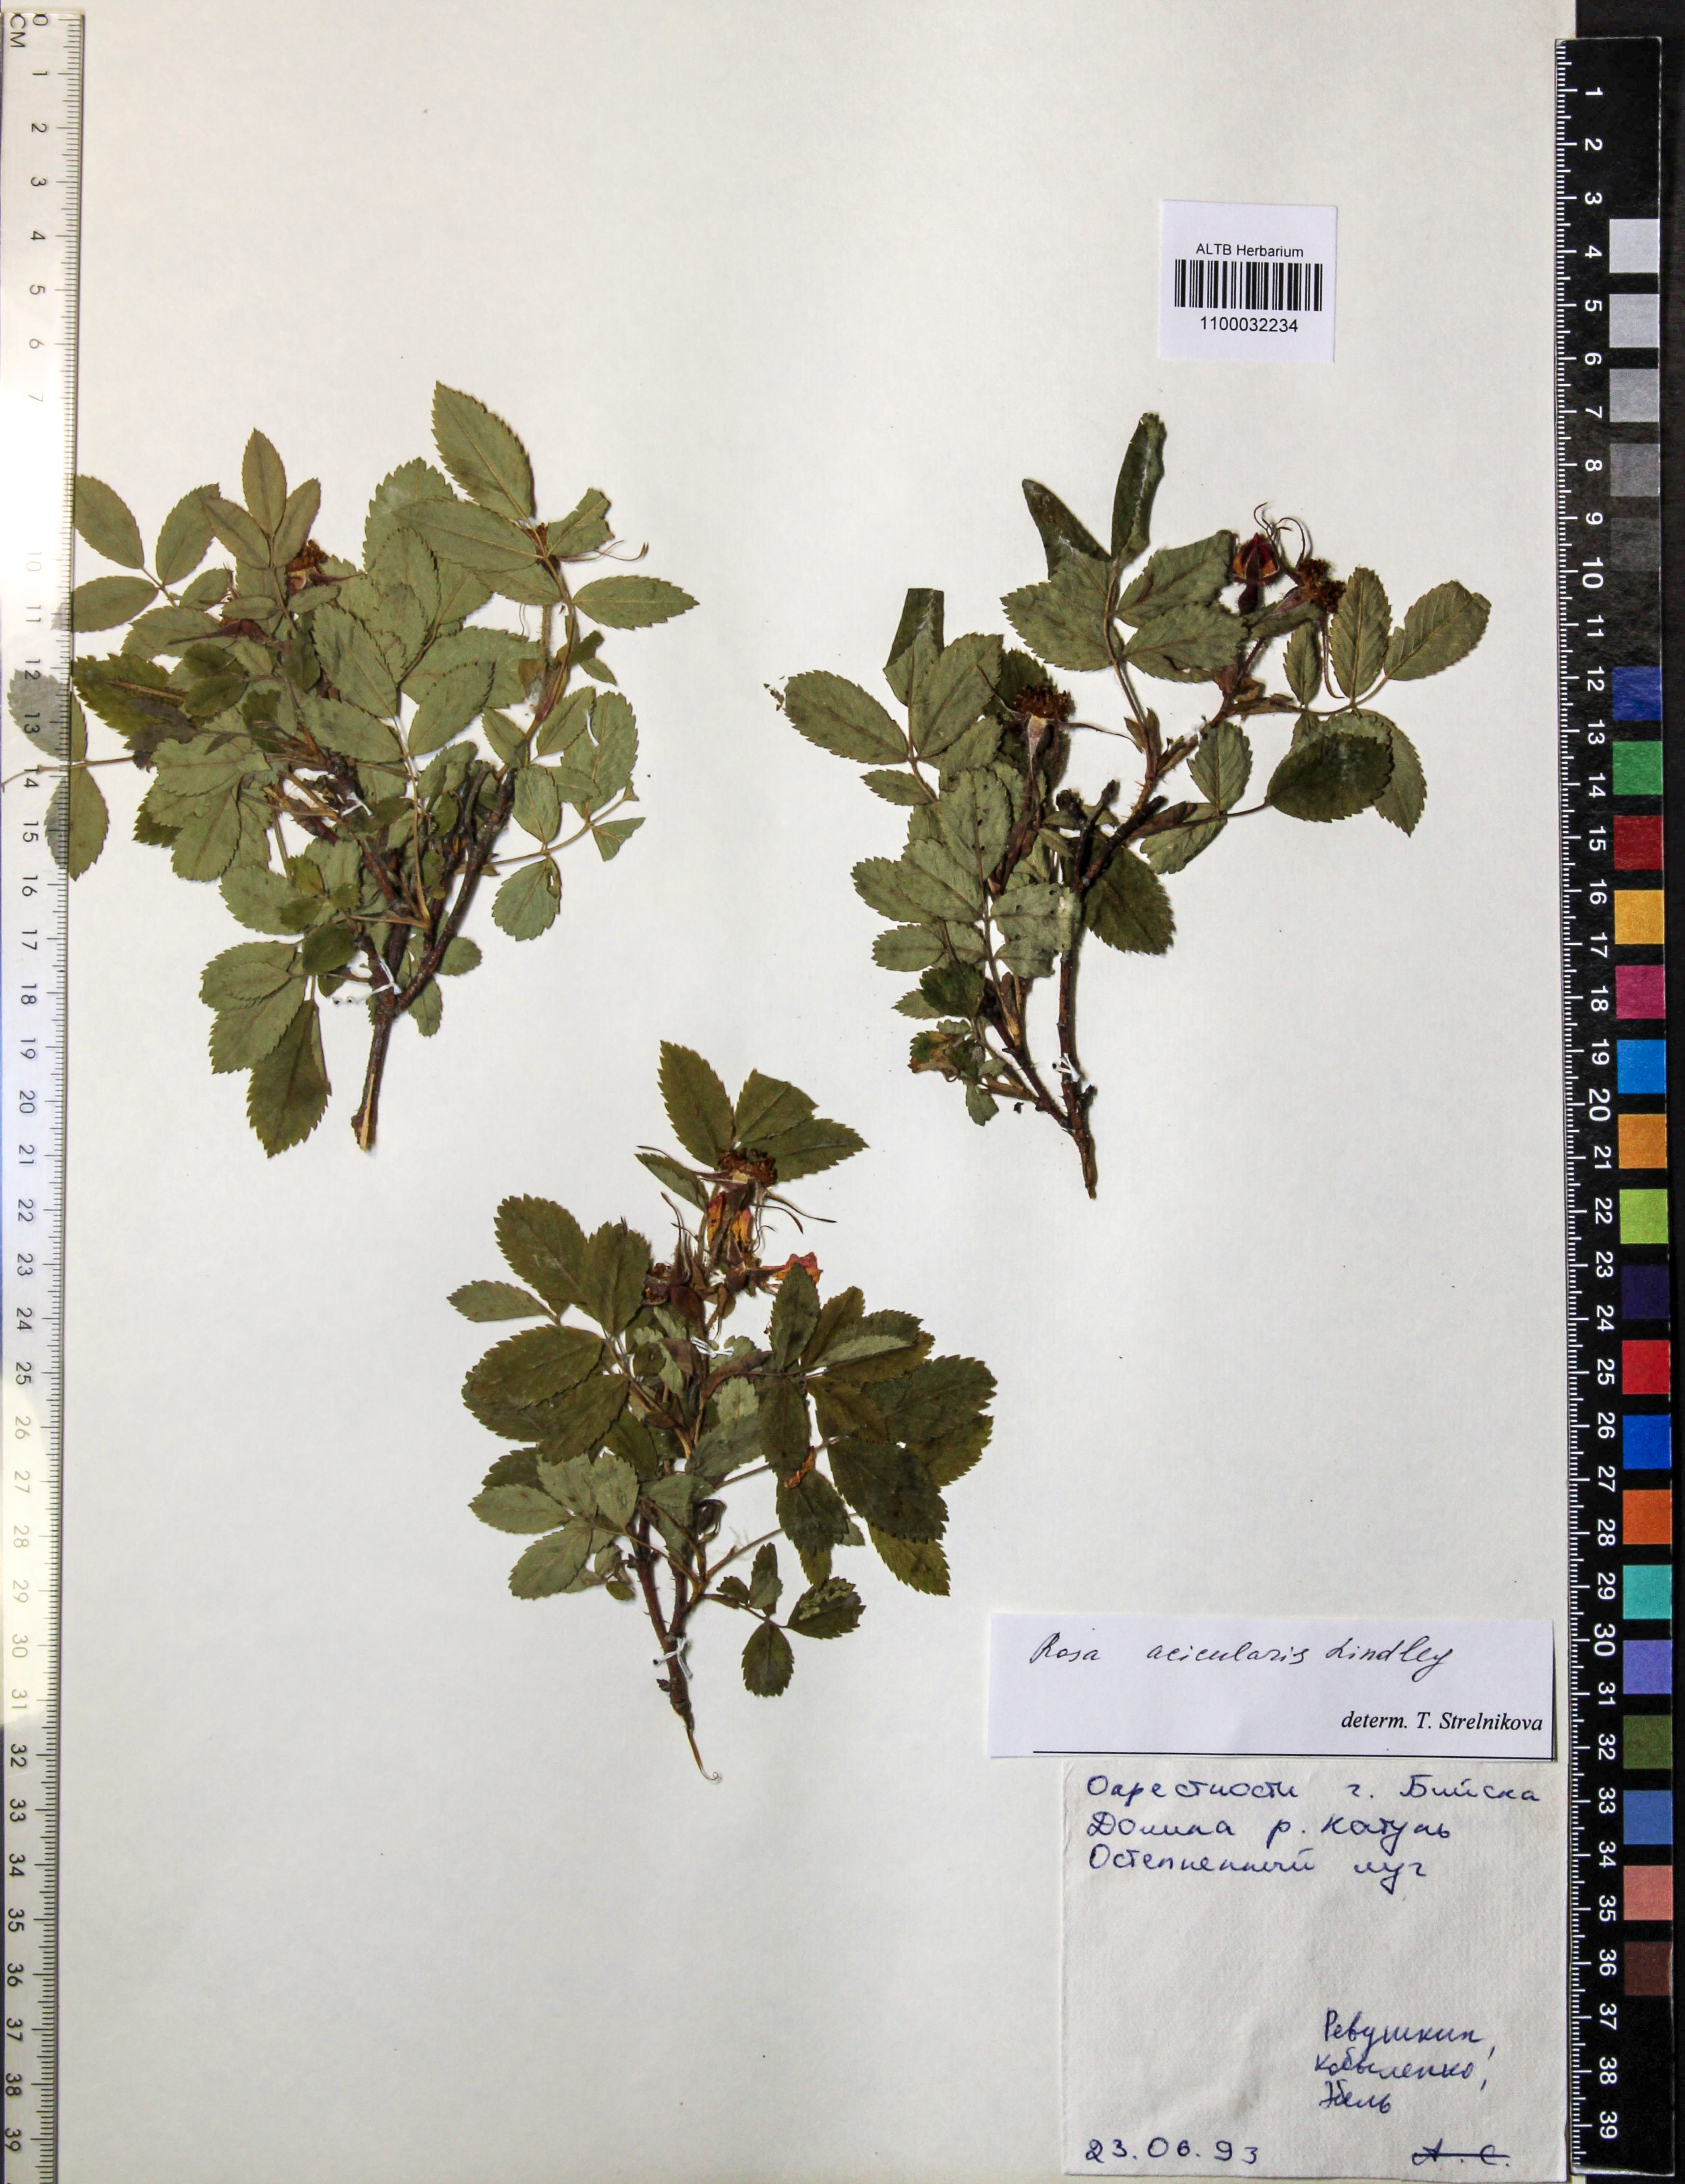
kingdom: Plantae
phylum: Tracheophyta
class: Magnoliopsida
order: Rosales
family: Rosaceae
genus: Rosa
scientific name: Rosa acicularis
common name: Prickly rose
